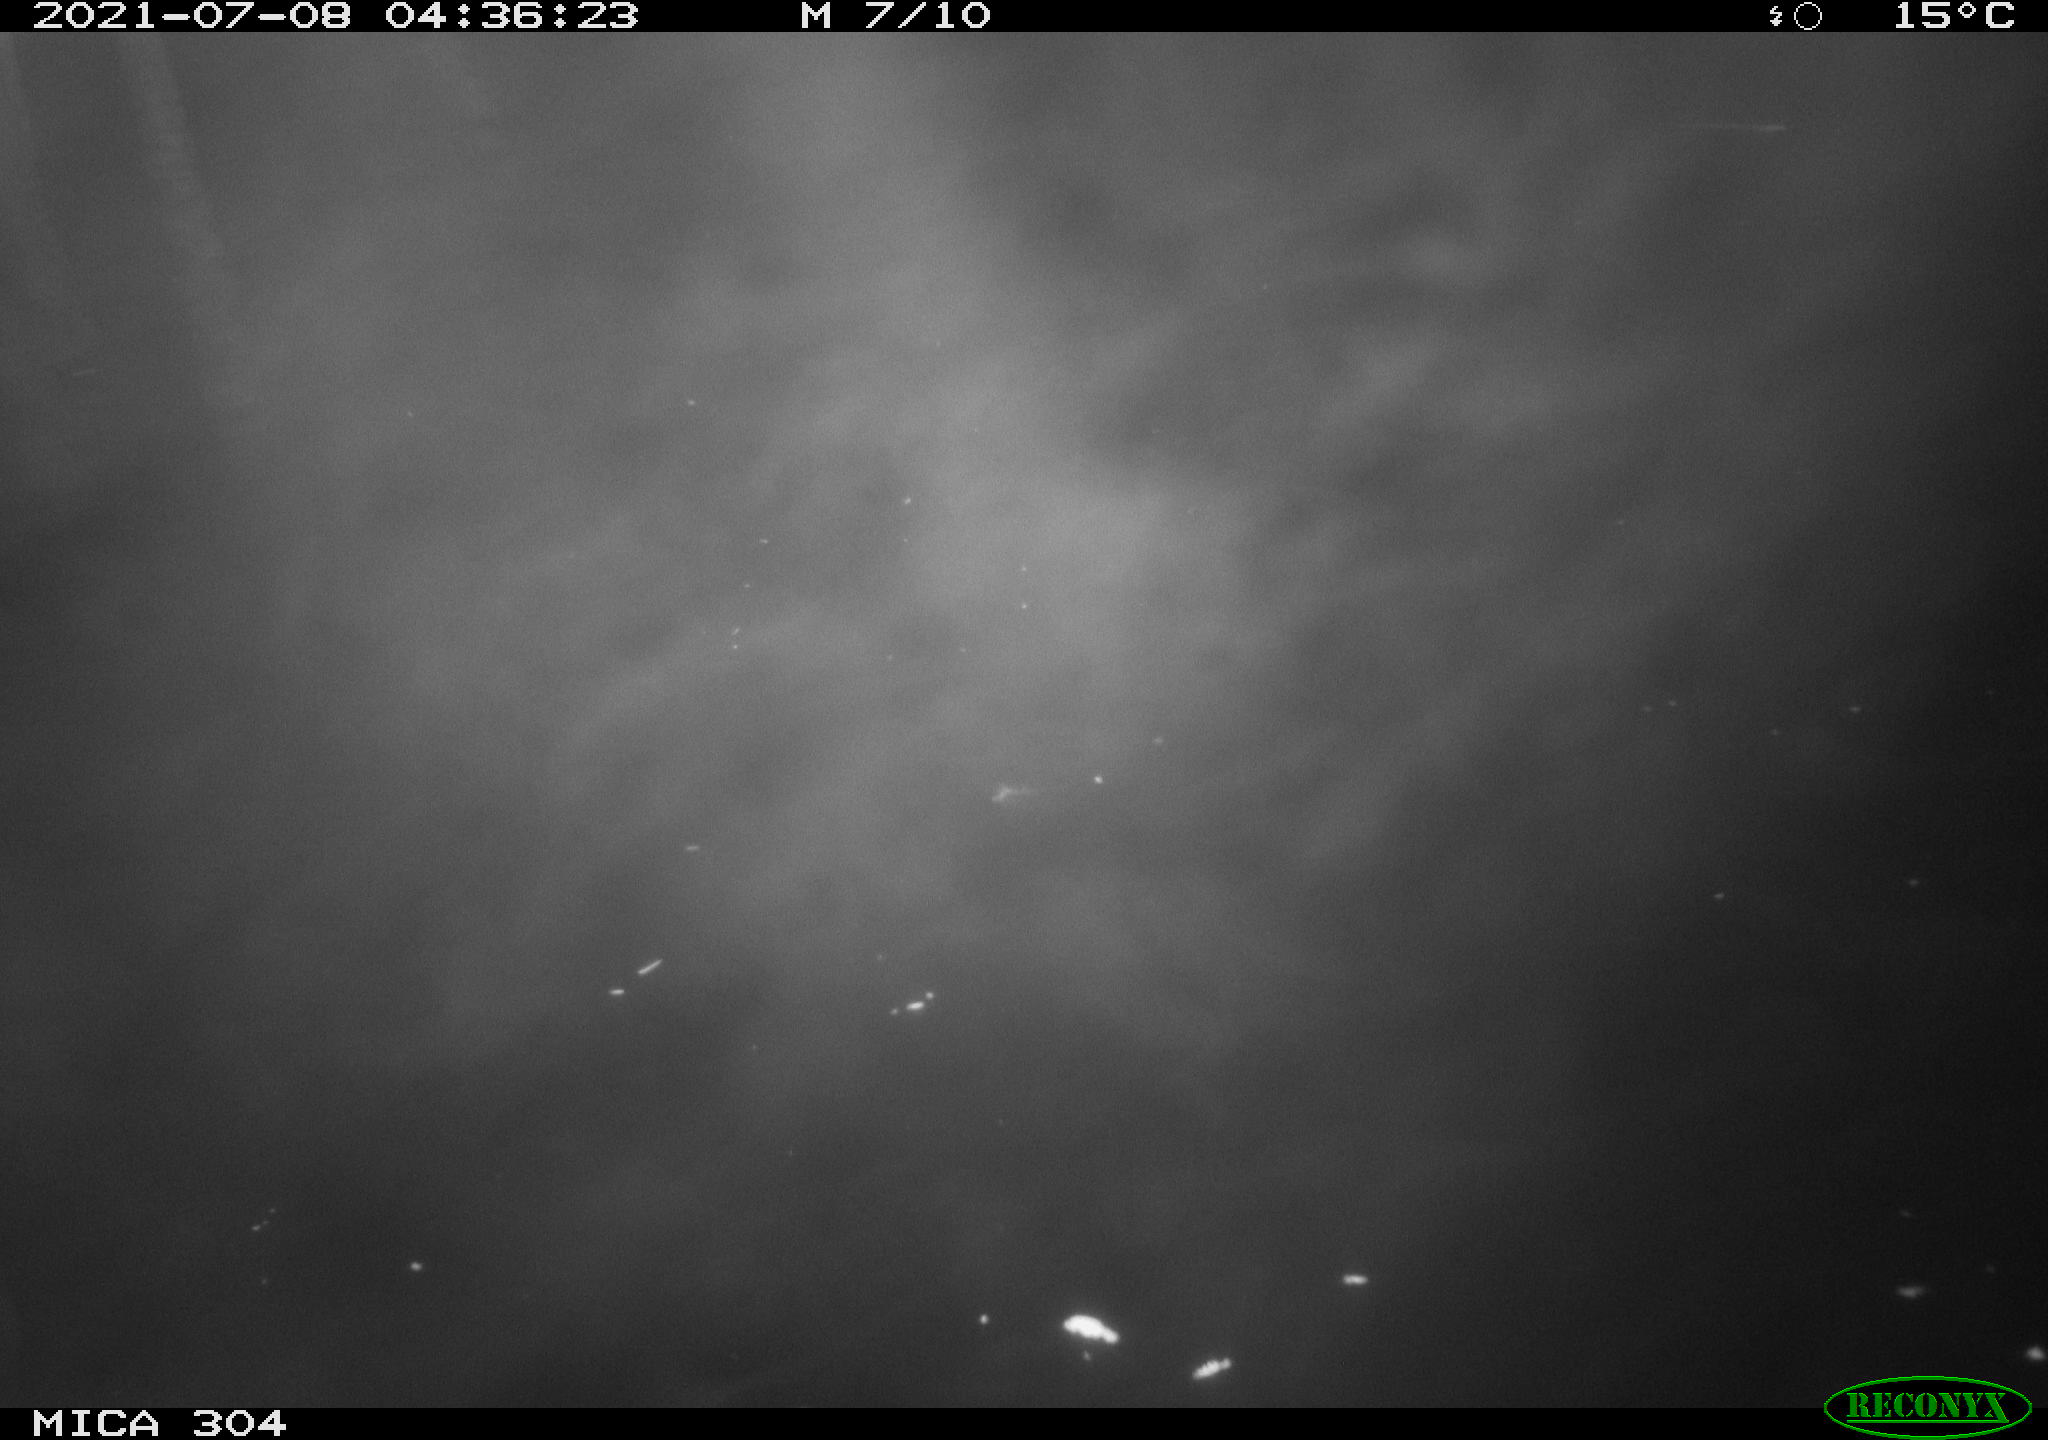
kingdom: Animalia
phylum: Chordata
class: Aves
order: Anseriformes
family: Anatidae
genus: Anas
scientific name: Anas platyrhynchos
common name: Mallard
